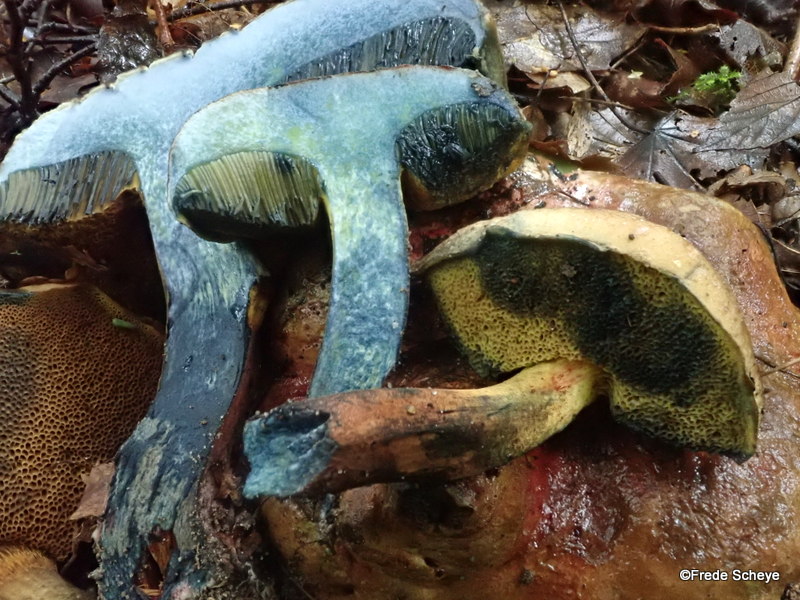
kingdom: Fungi
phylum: Basidiomycota
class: Agaricomycetes
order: Boletales
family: Boletaceae
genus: Cyanoboletus
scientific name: Cyanoboletus pulverulentus
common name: sortblånende rørhat
